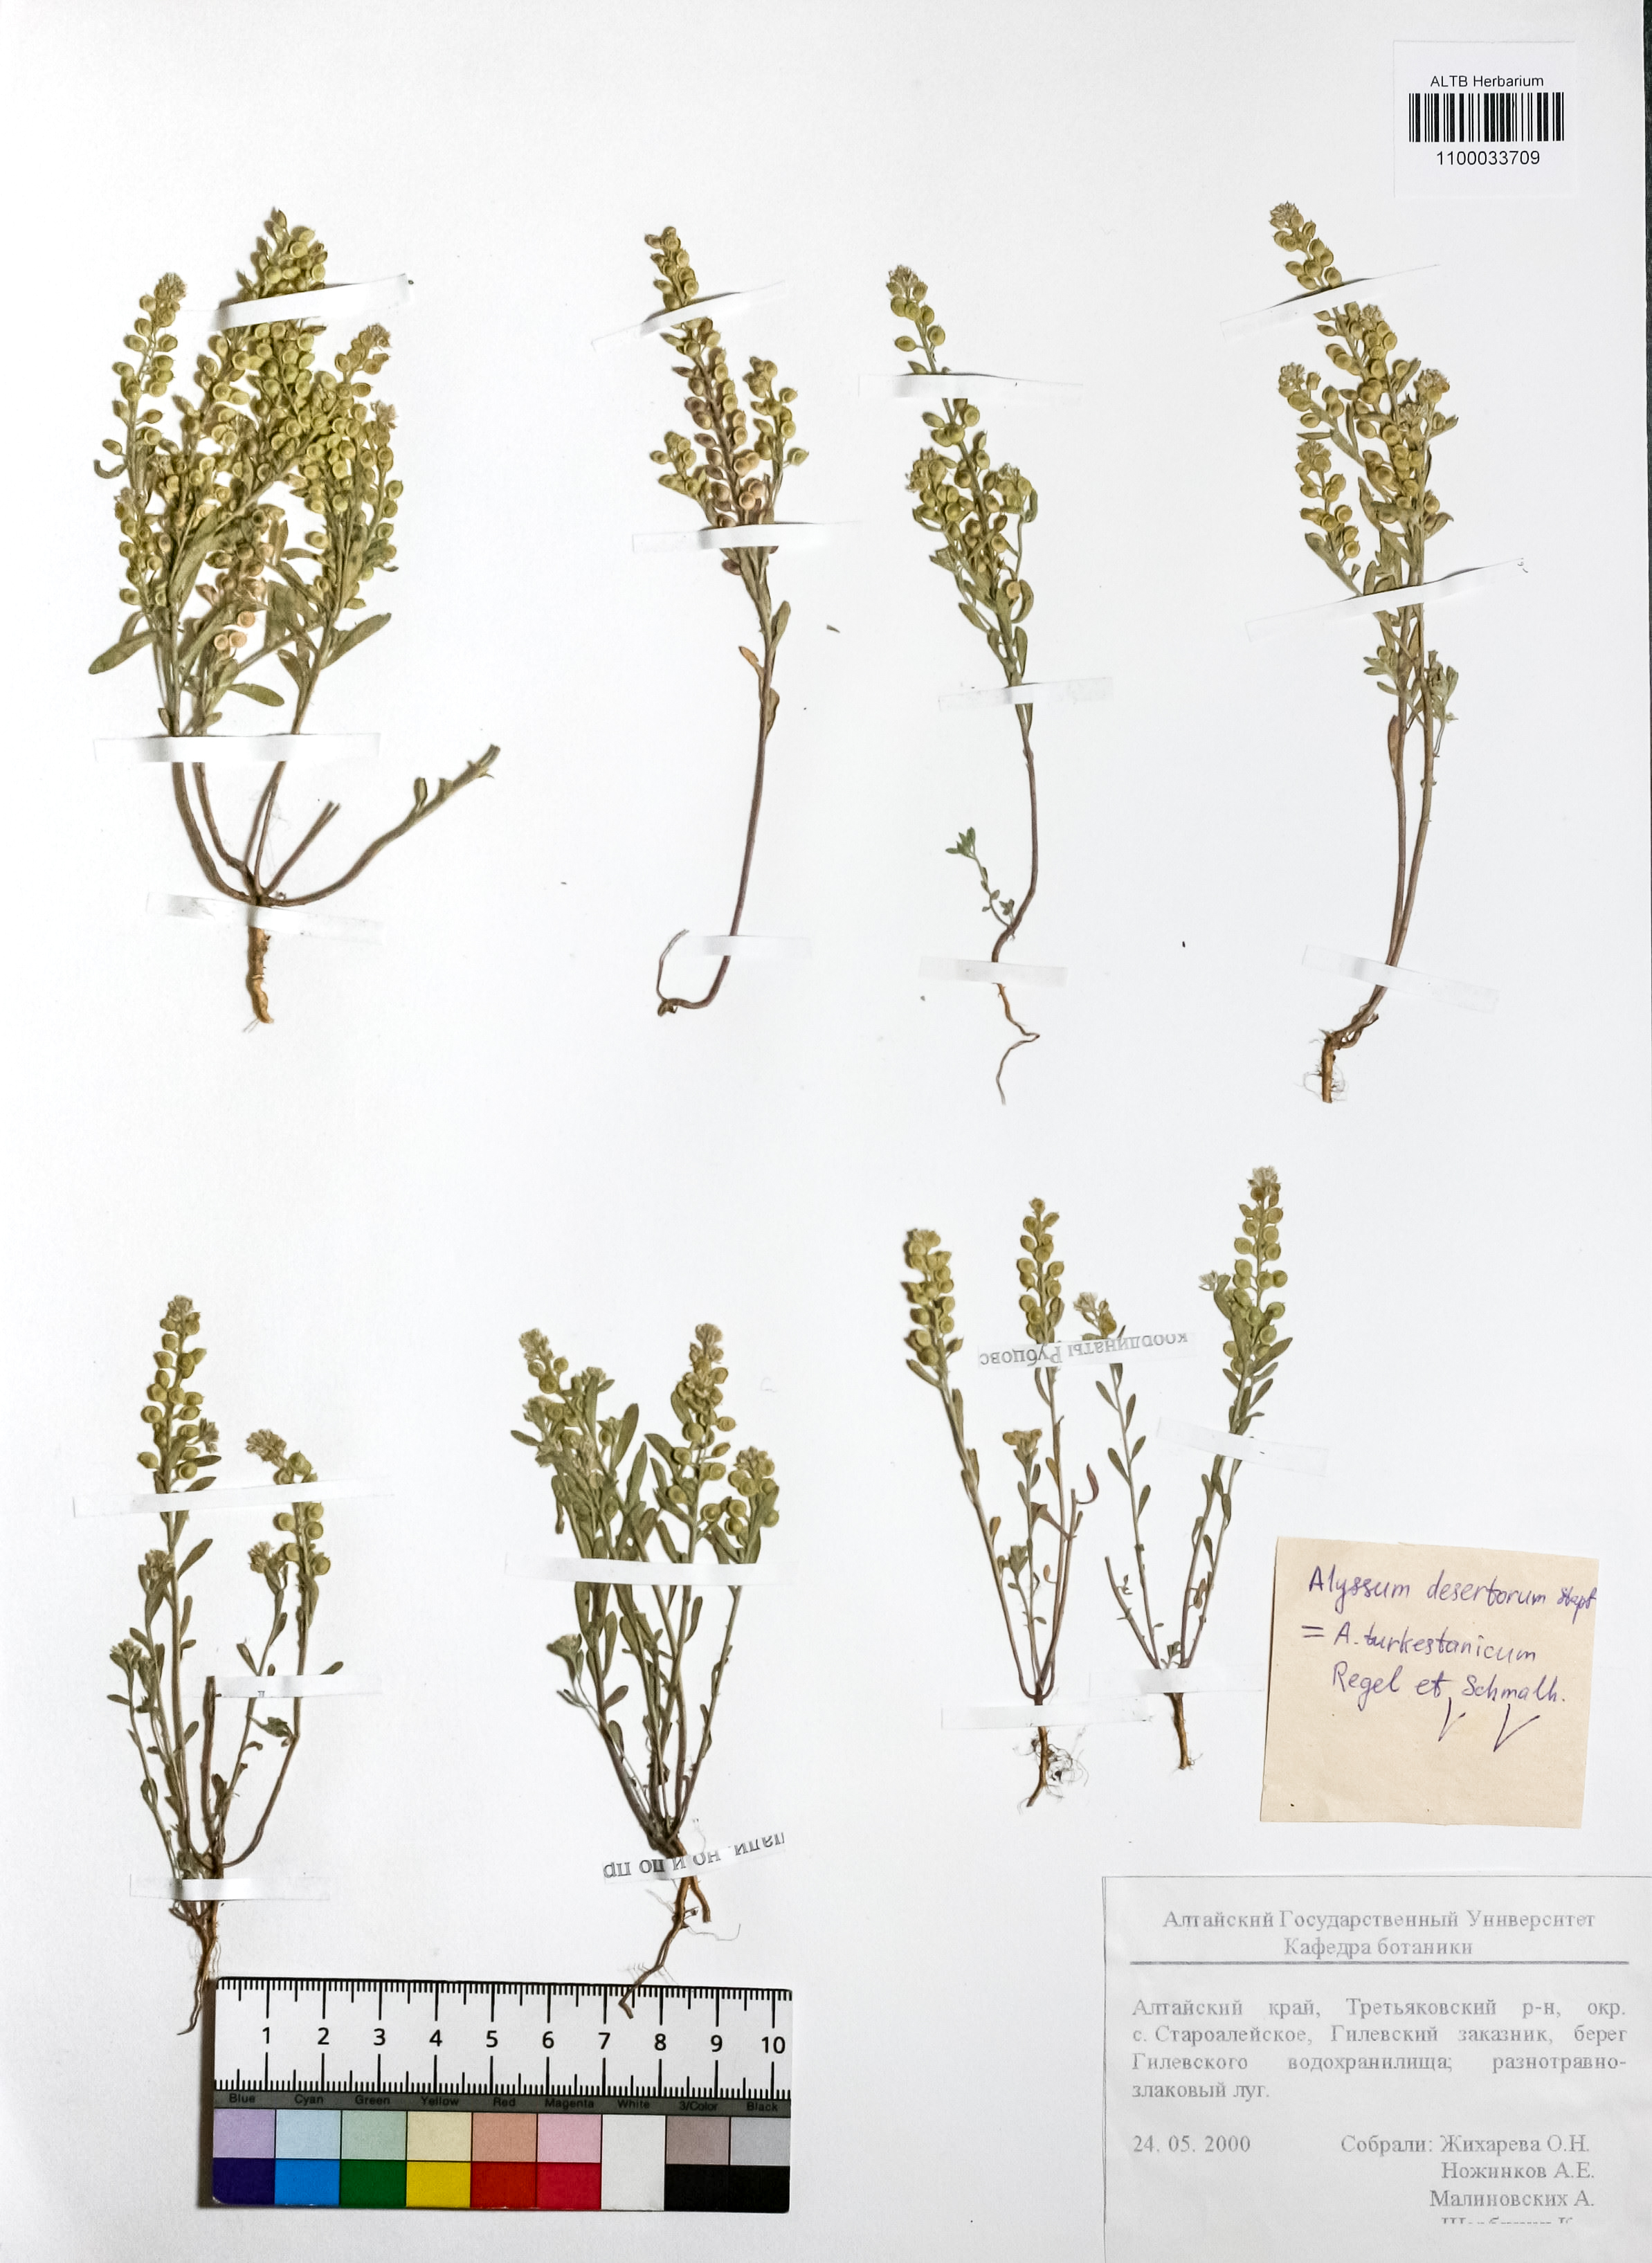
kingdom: Plantae
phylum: Tracheophyta
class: Magnoliopsida
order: Brassicales
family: Brassicaceae
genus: Alyssum
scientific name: Alyssum turkestanicum
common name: Desert alyssum
